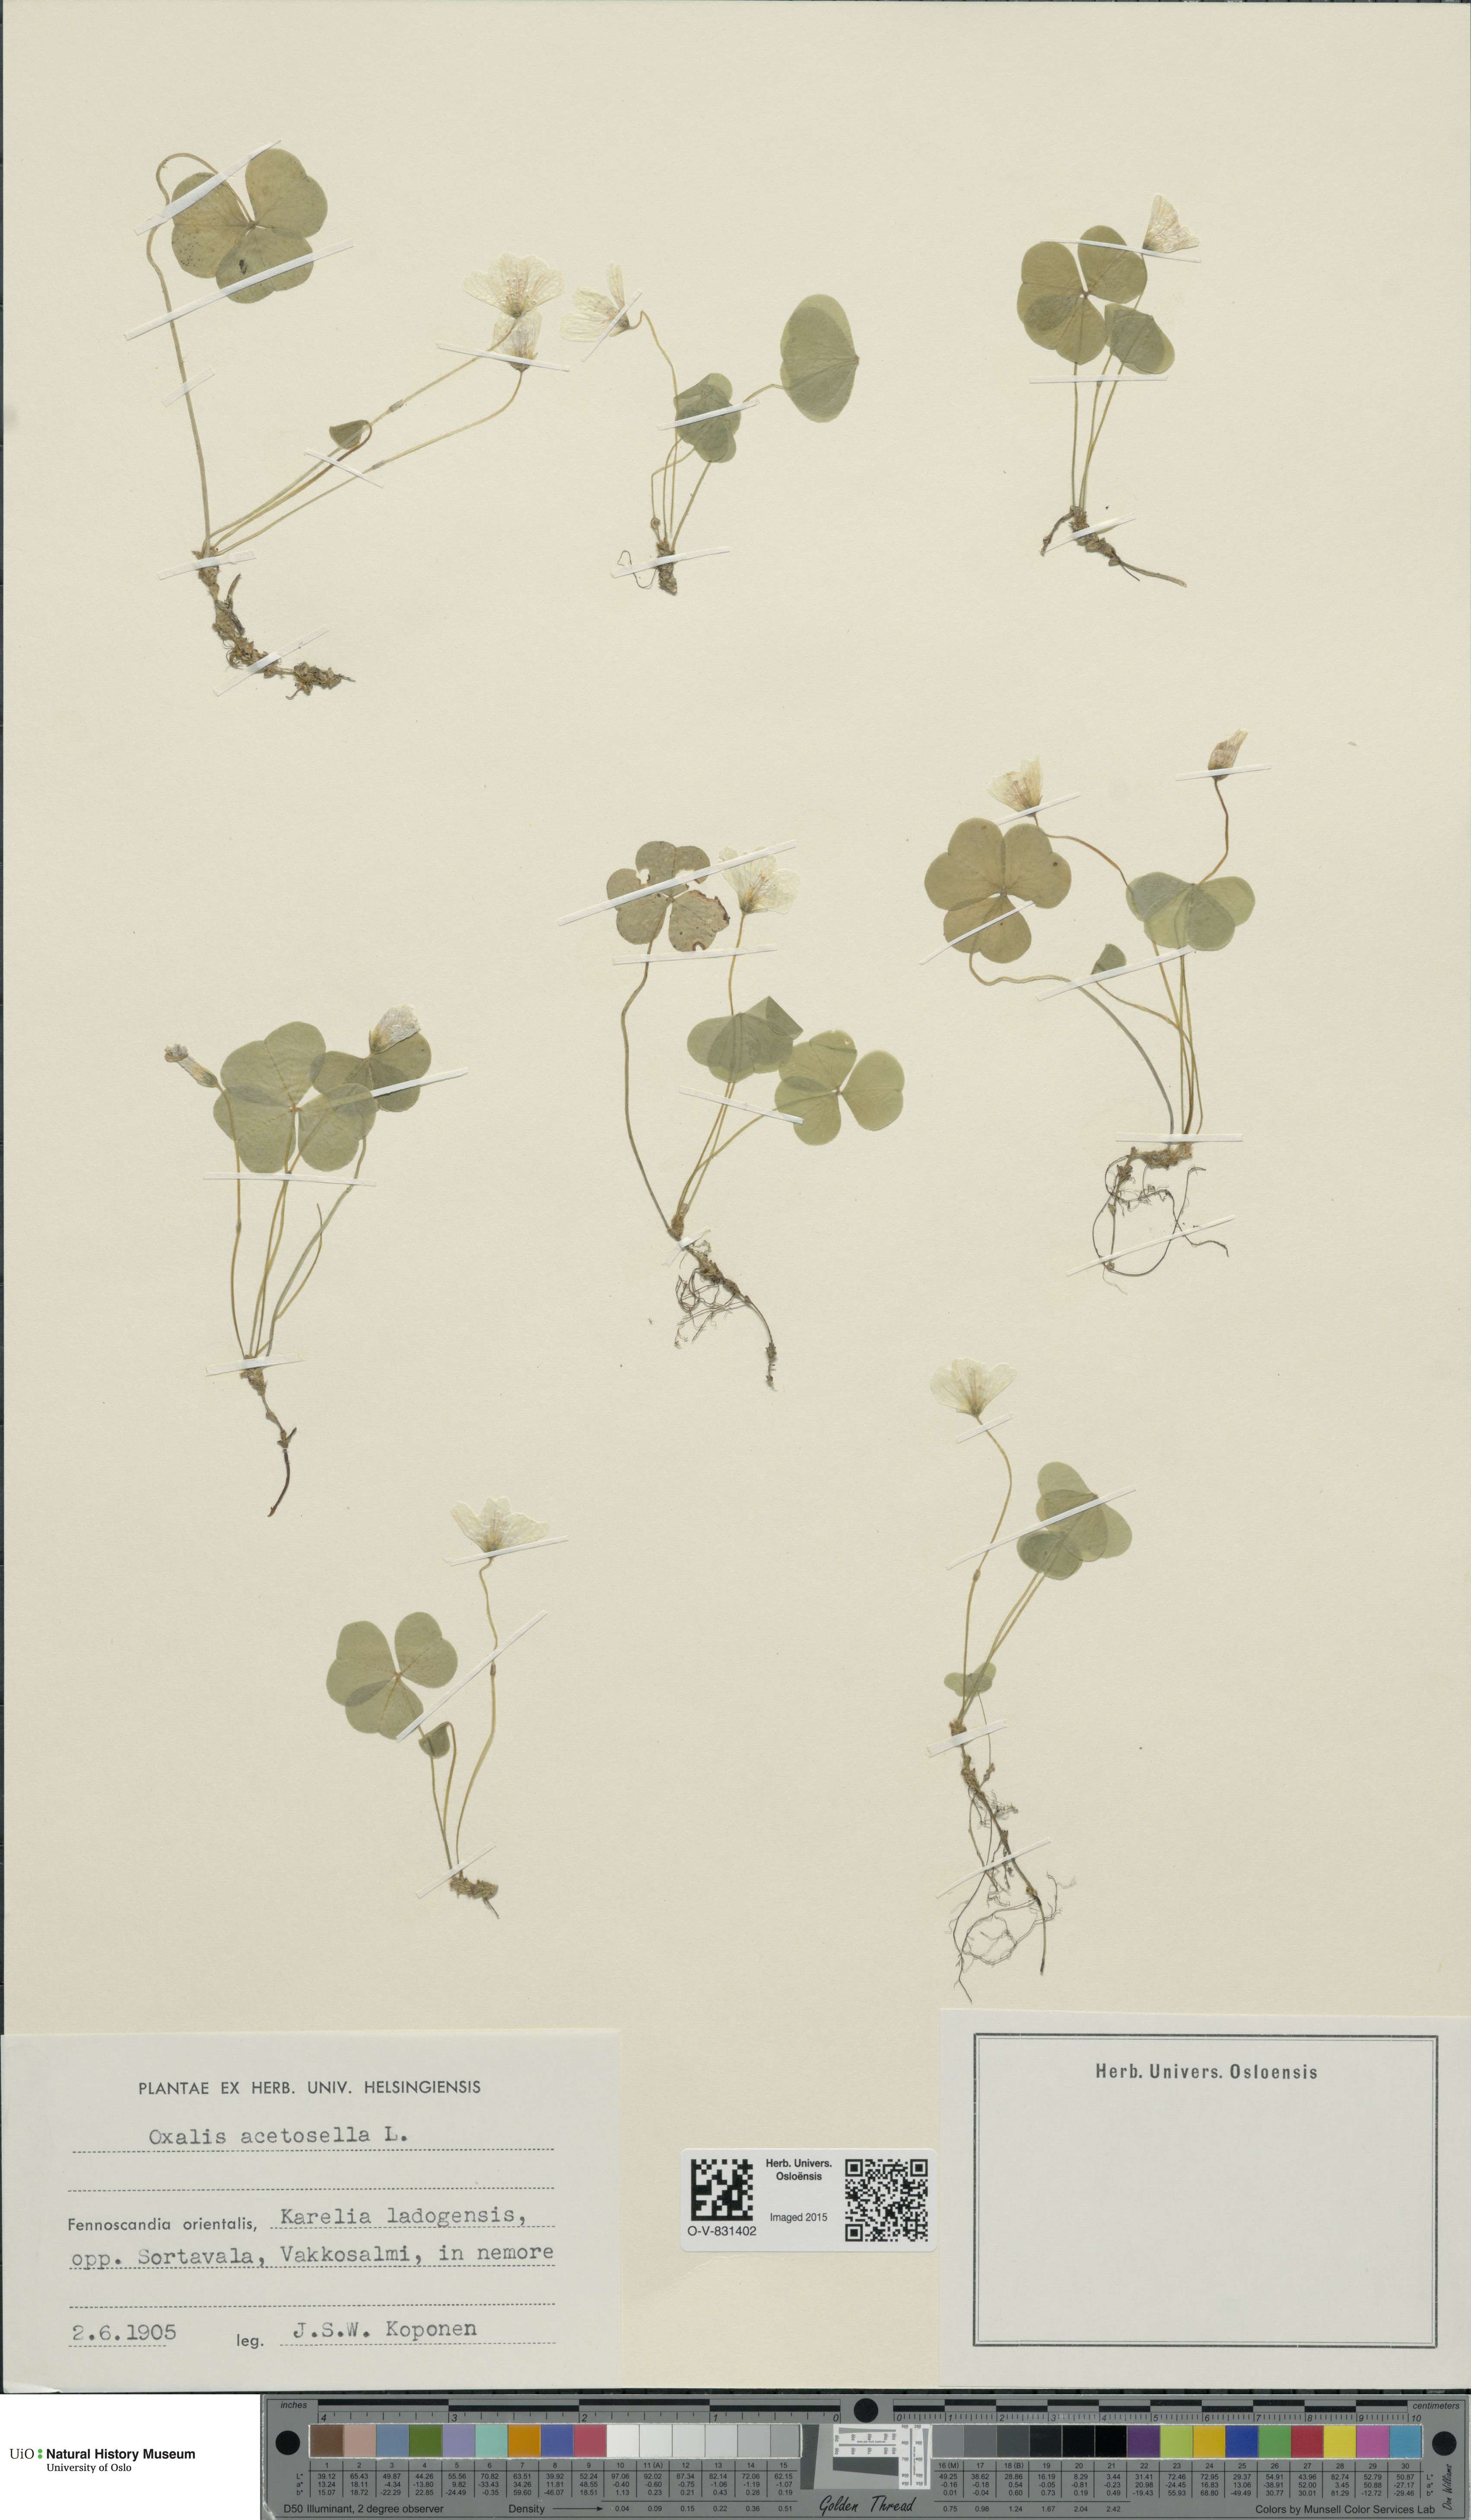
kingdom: Plantae
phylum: Tracheophyta
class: Magnoliopsida
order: Oxalidales
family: Oxalidaceae
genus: Oxalis
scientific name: Oxalis acetosella
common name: Wood-sorrel
